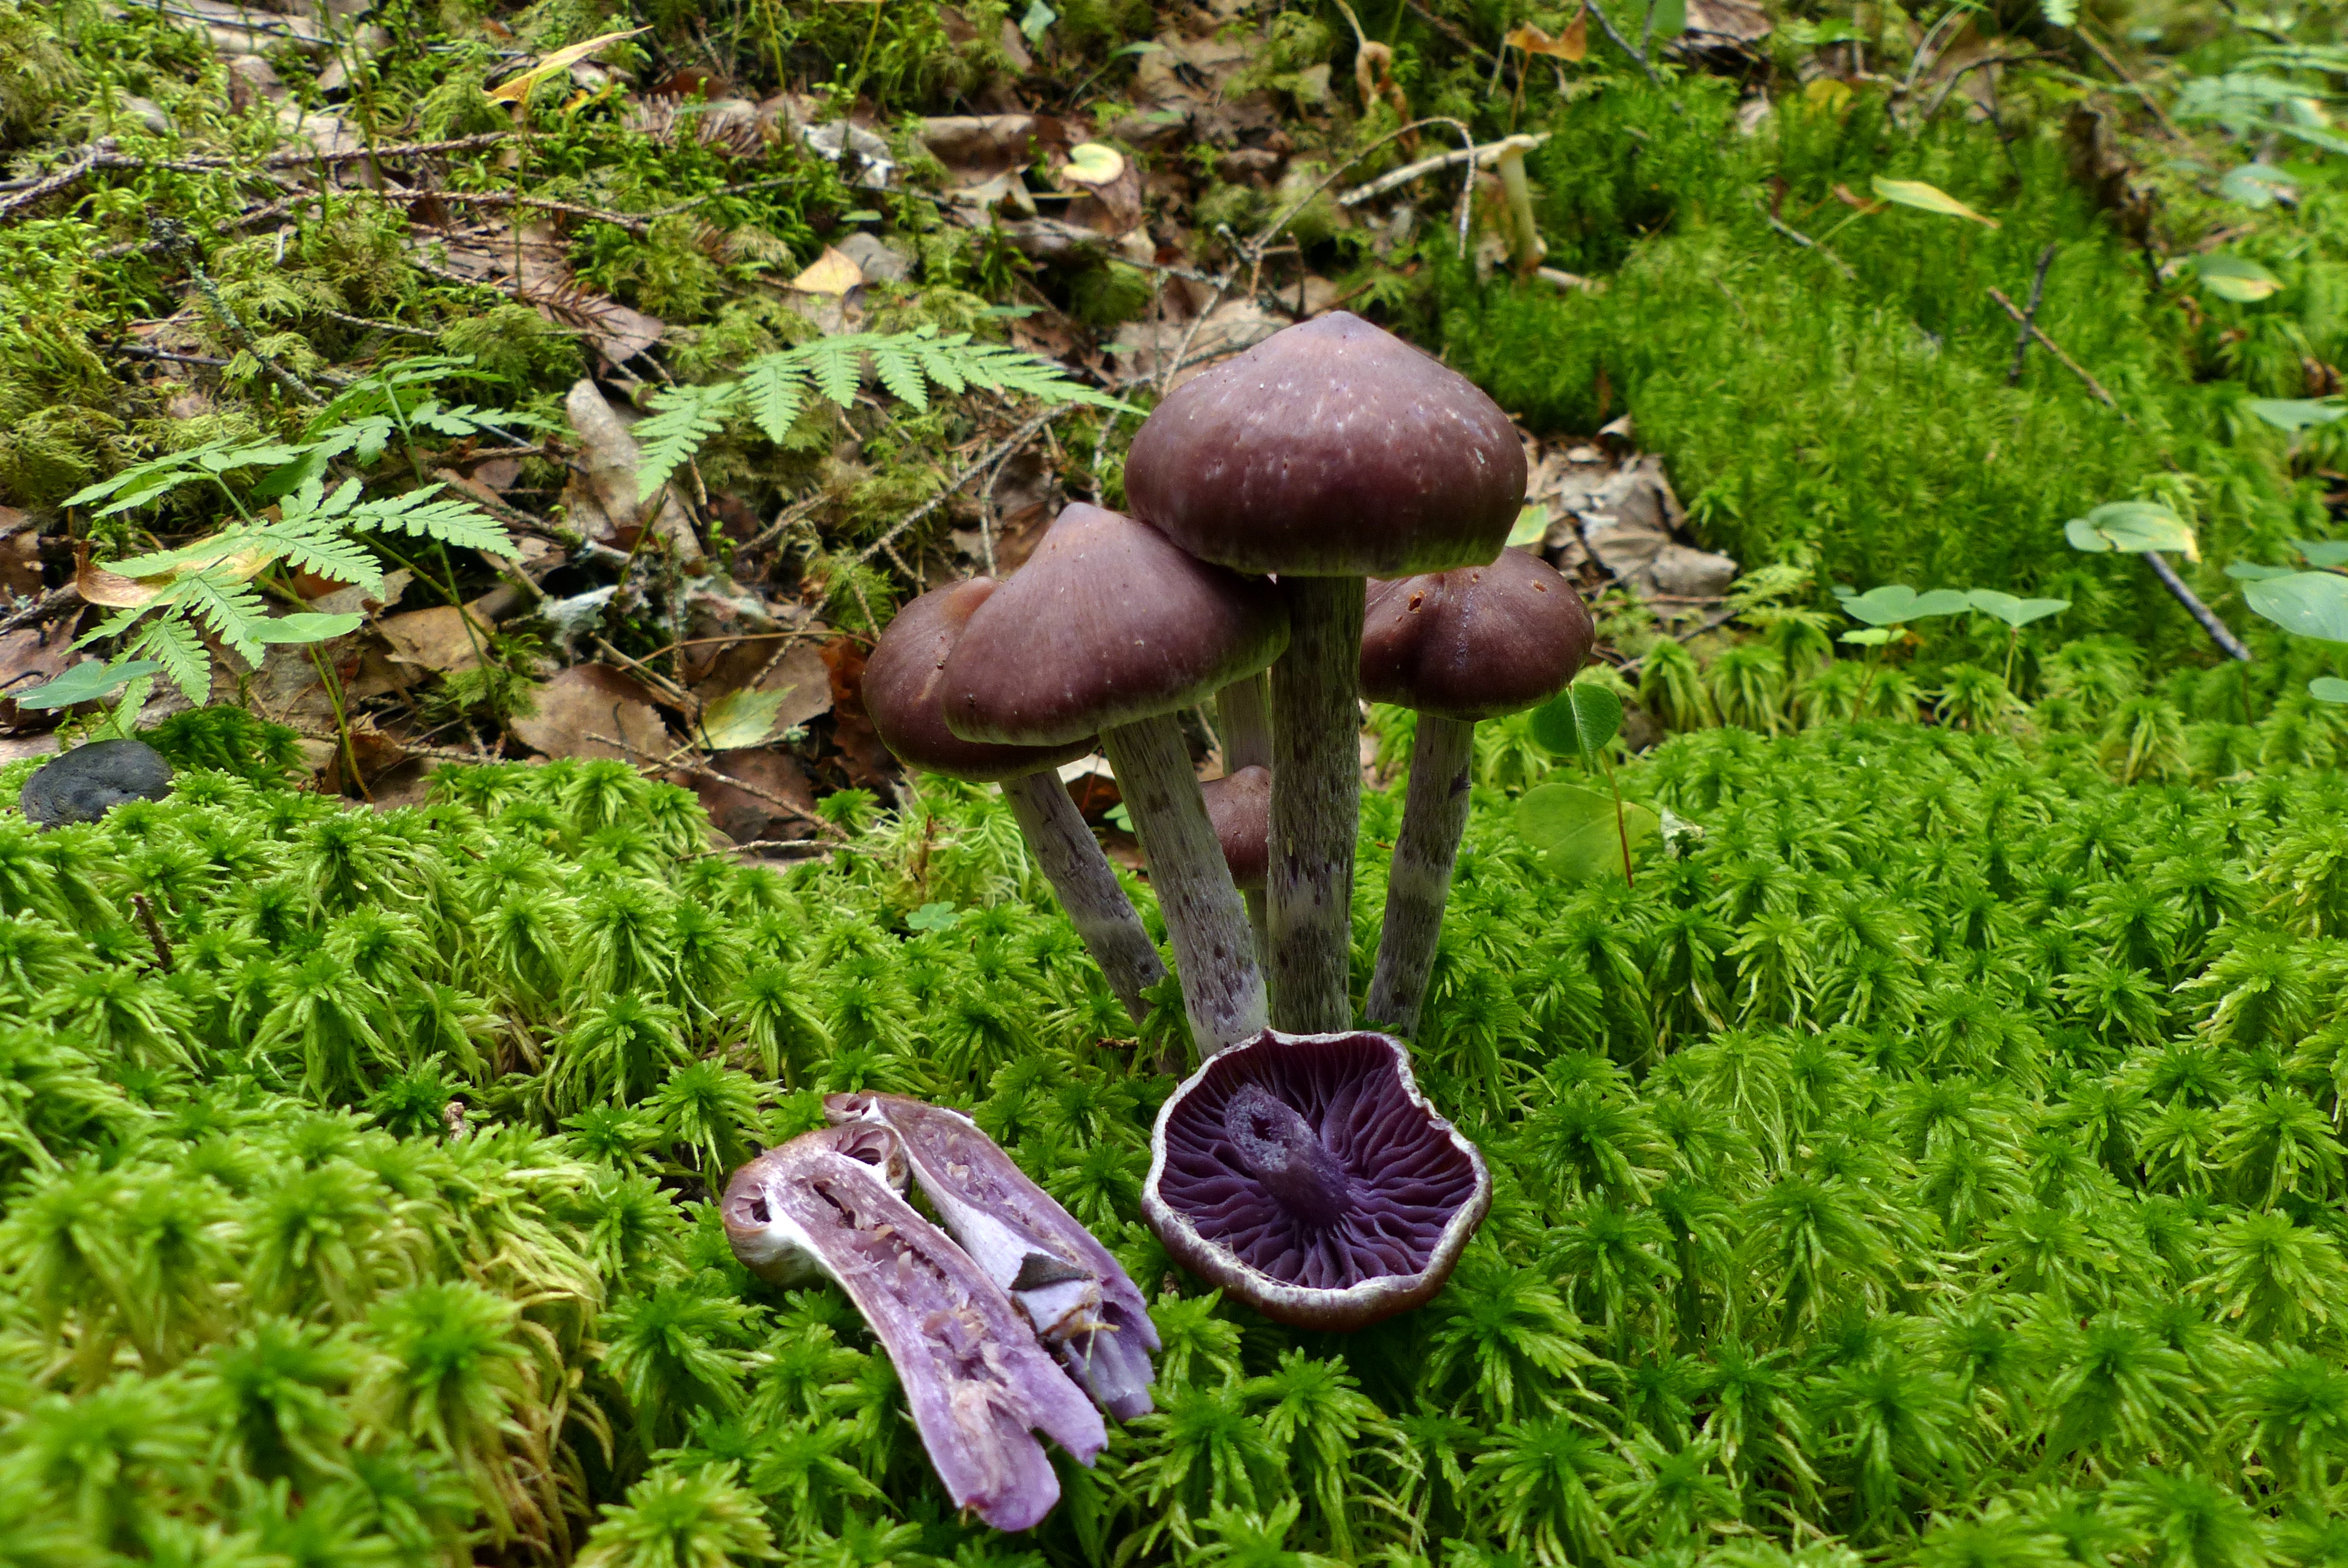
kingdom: Fungi
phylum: Basidiomycota
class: Agaricomycetes
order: Agaricales
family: Cortinariaceae
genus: Cortinarius
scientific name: Cortinarius evernius
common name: Silky webcap
